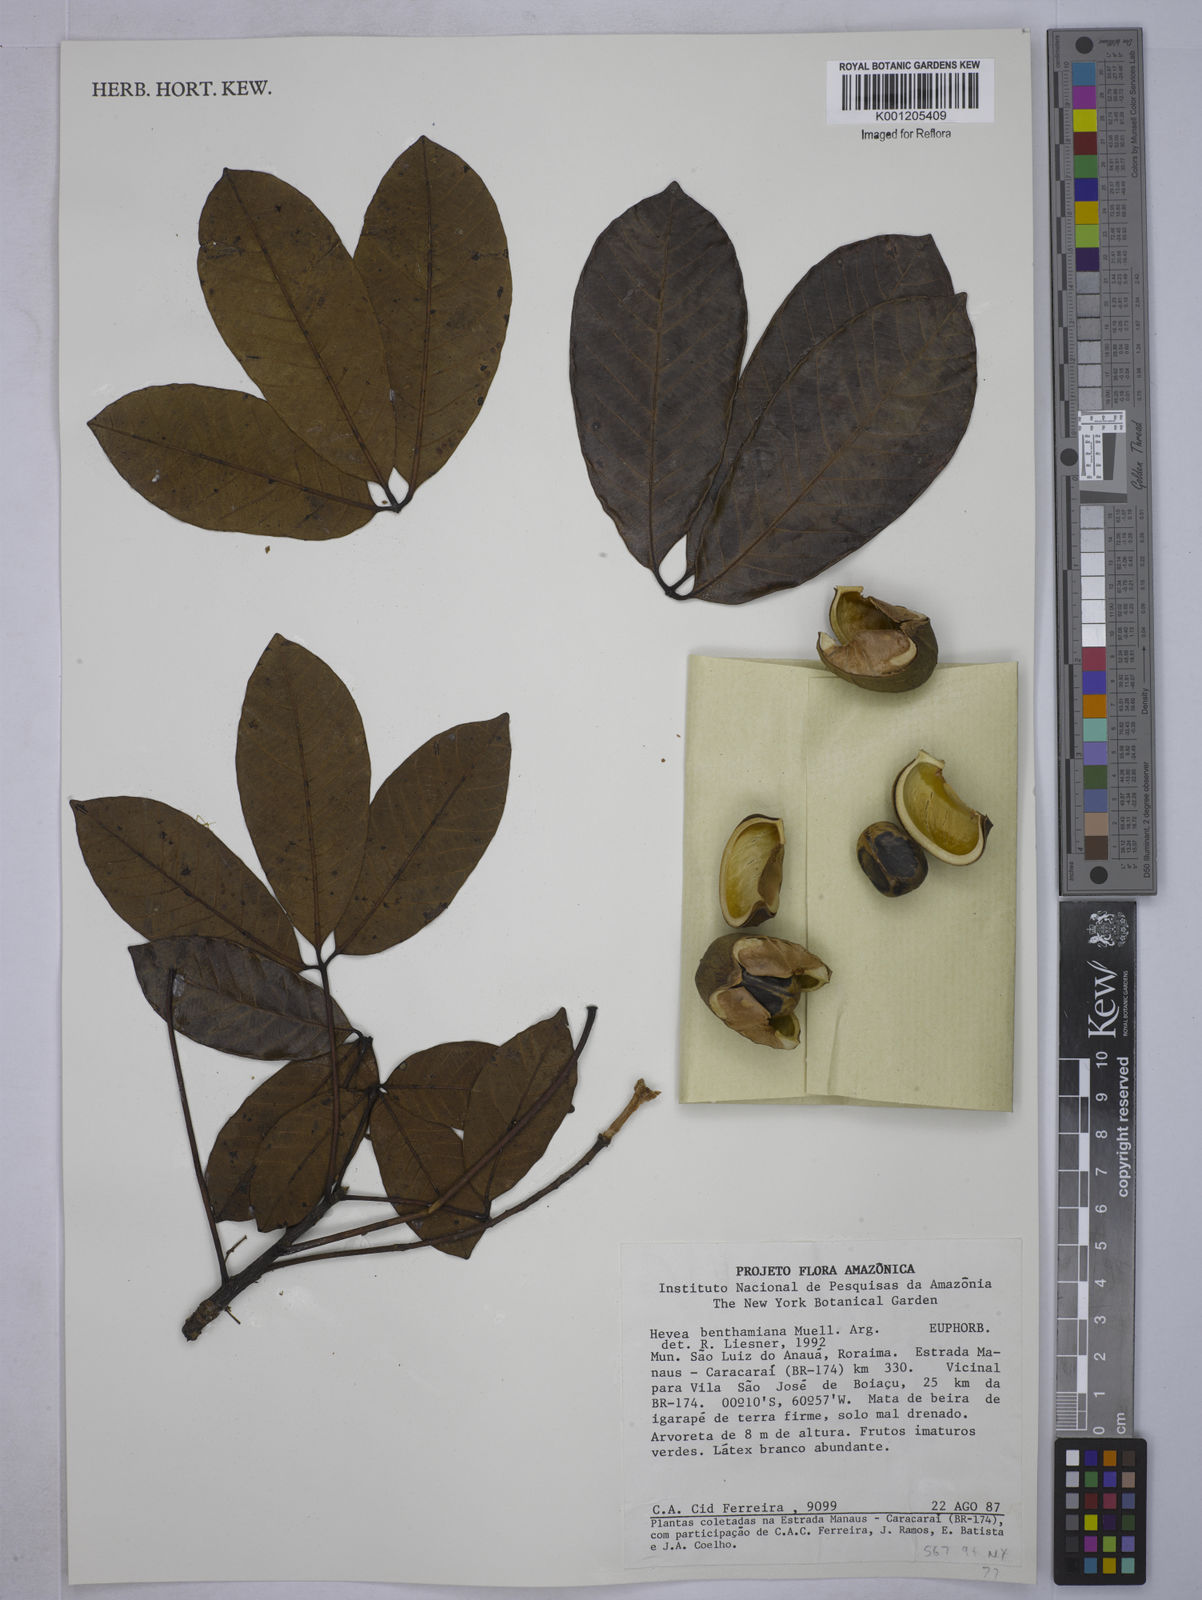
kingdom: Plantae
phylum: Tracheophyta
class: Magnoliopsida
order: Malpighiales
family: Euphorbiaceae
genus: Hevea
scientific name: Hevea
